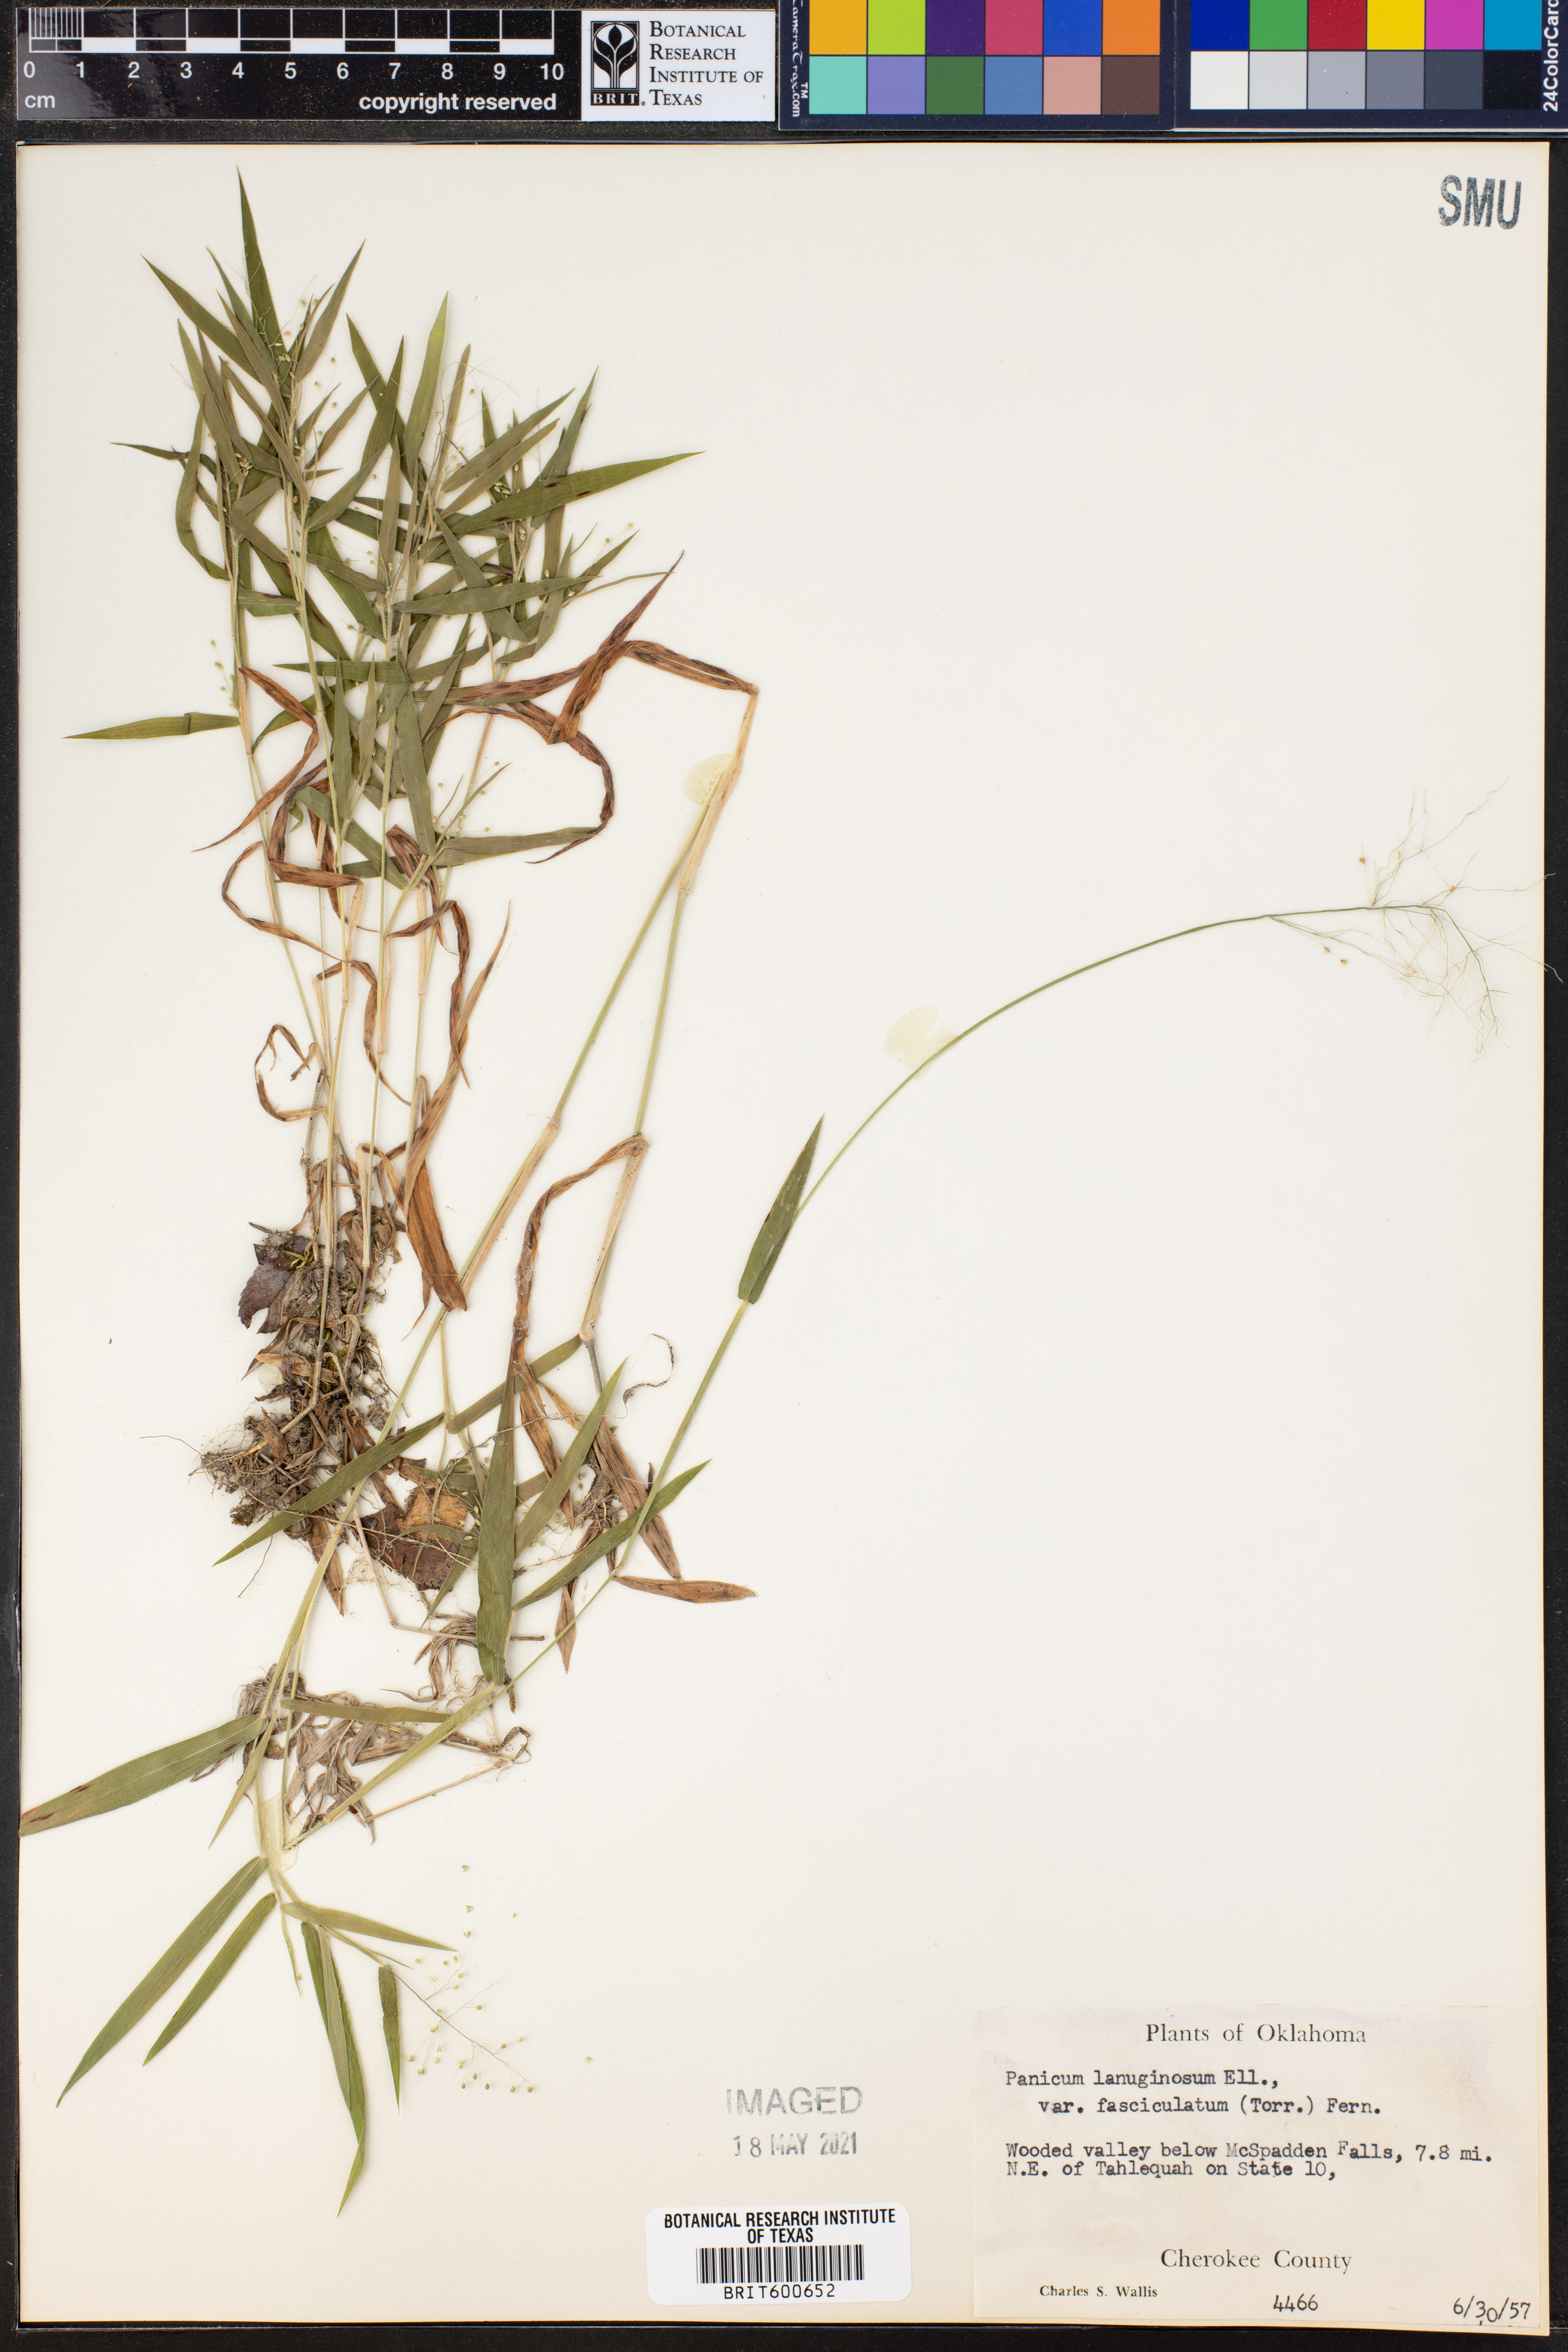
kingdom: Plantae
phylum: Tracheophyta
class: Liliopsida
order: Poales
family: Poaceae
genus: Dichanthelium
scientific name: Dichanthelium lanuginosum
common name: Woolly panicgrass
